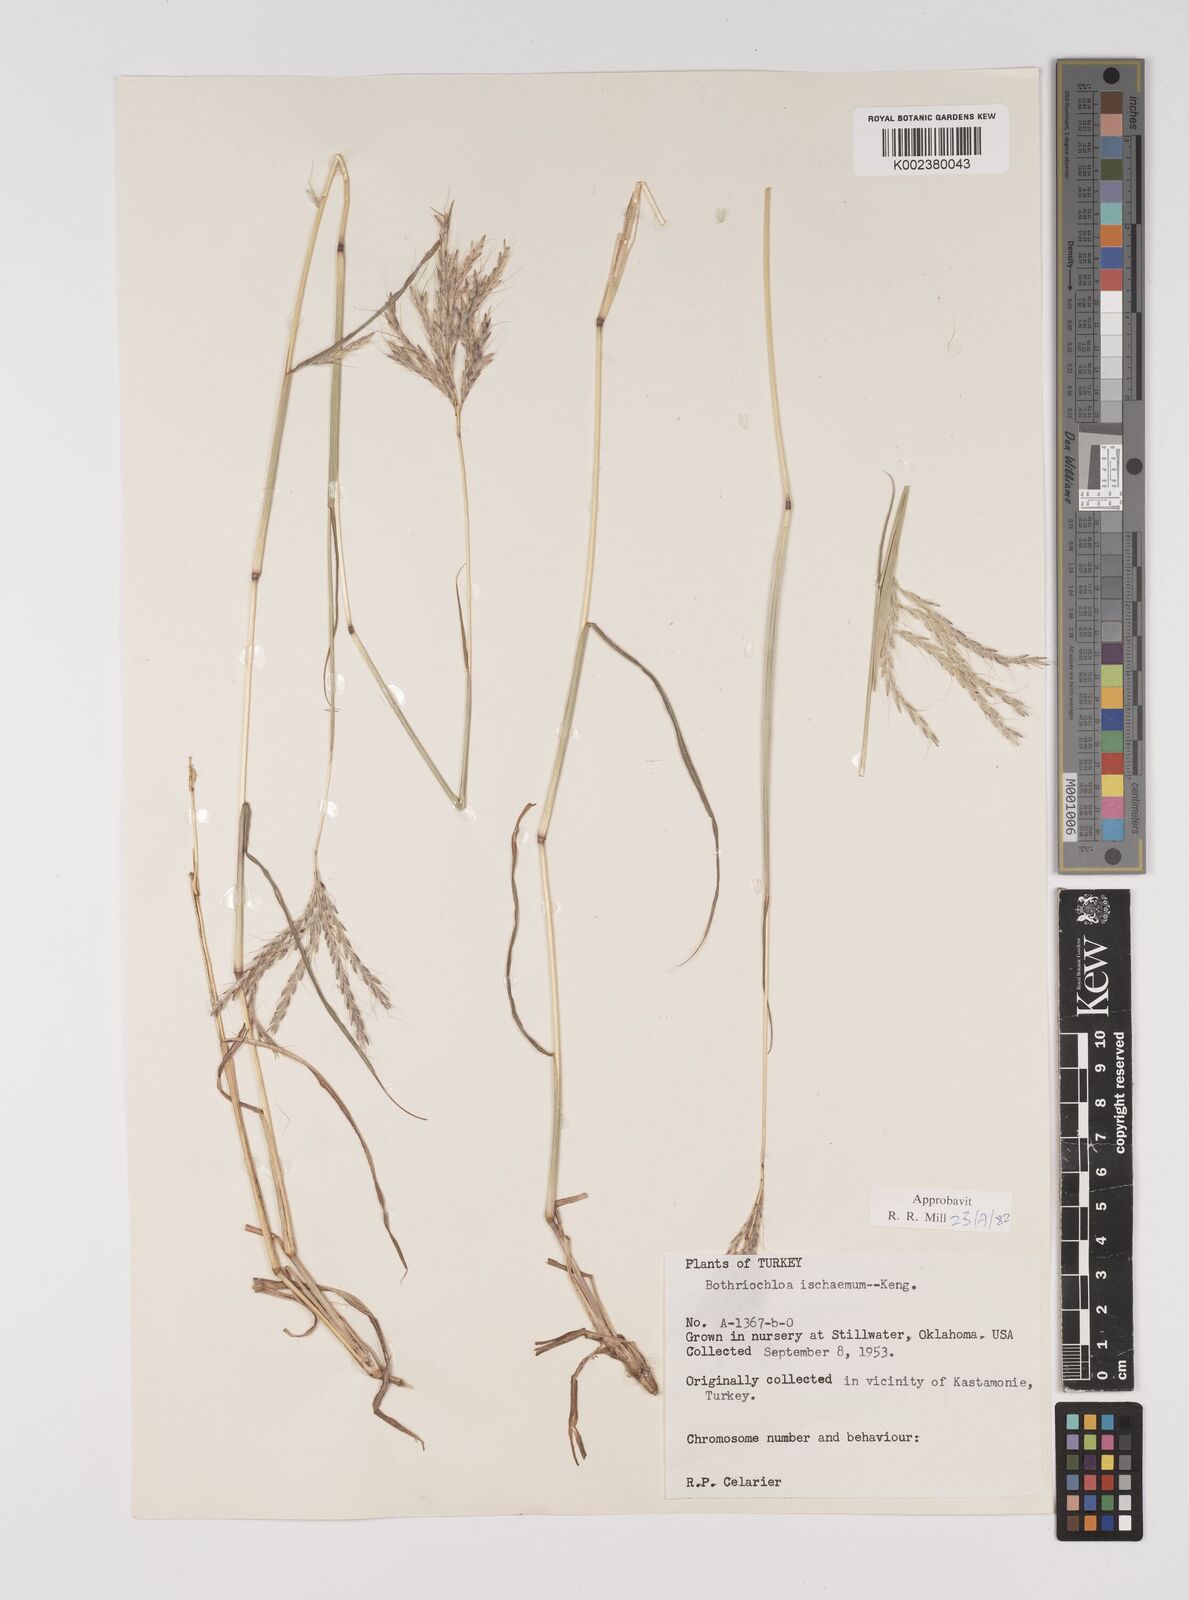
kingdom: Plantae
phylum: Tracheophyta
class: Liliopsida
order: Poales
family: Poaceae
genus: Bothriochloa
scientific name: Bothriochloa ischaemum
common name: Yellow bluestem
